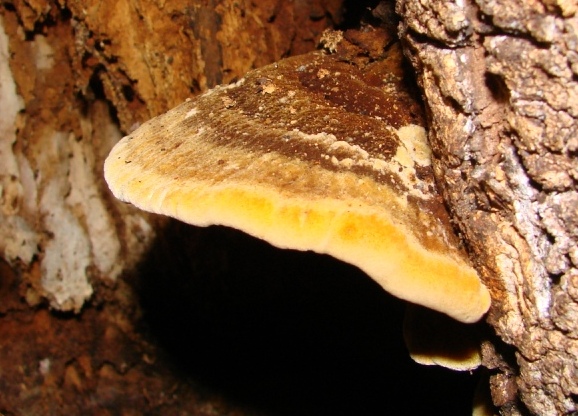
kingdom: Fungi
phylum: Basidiomycota
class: Agaricomycetes
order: Hymenochaetales
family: Hymenochaetaceae
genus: Inonotus
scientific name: Inonotus cuticularis
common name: kroghåret spejlporesvamp
